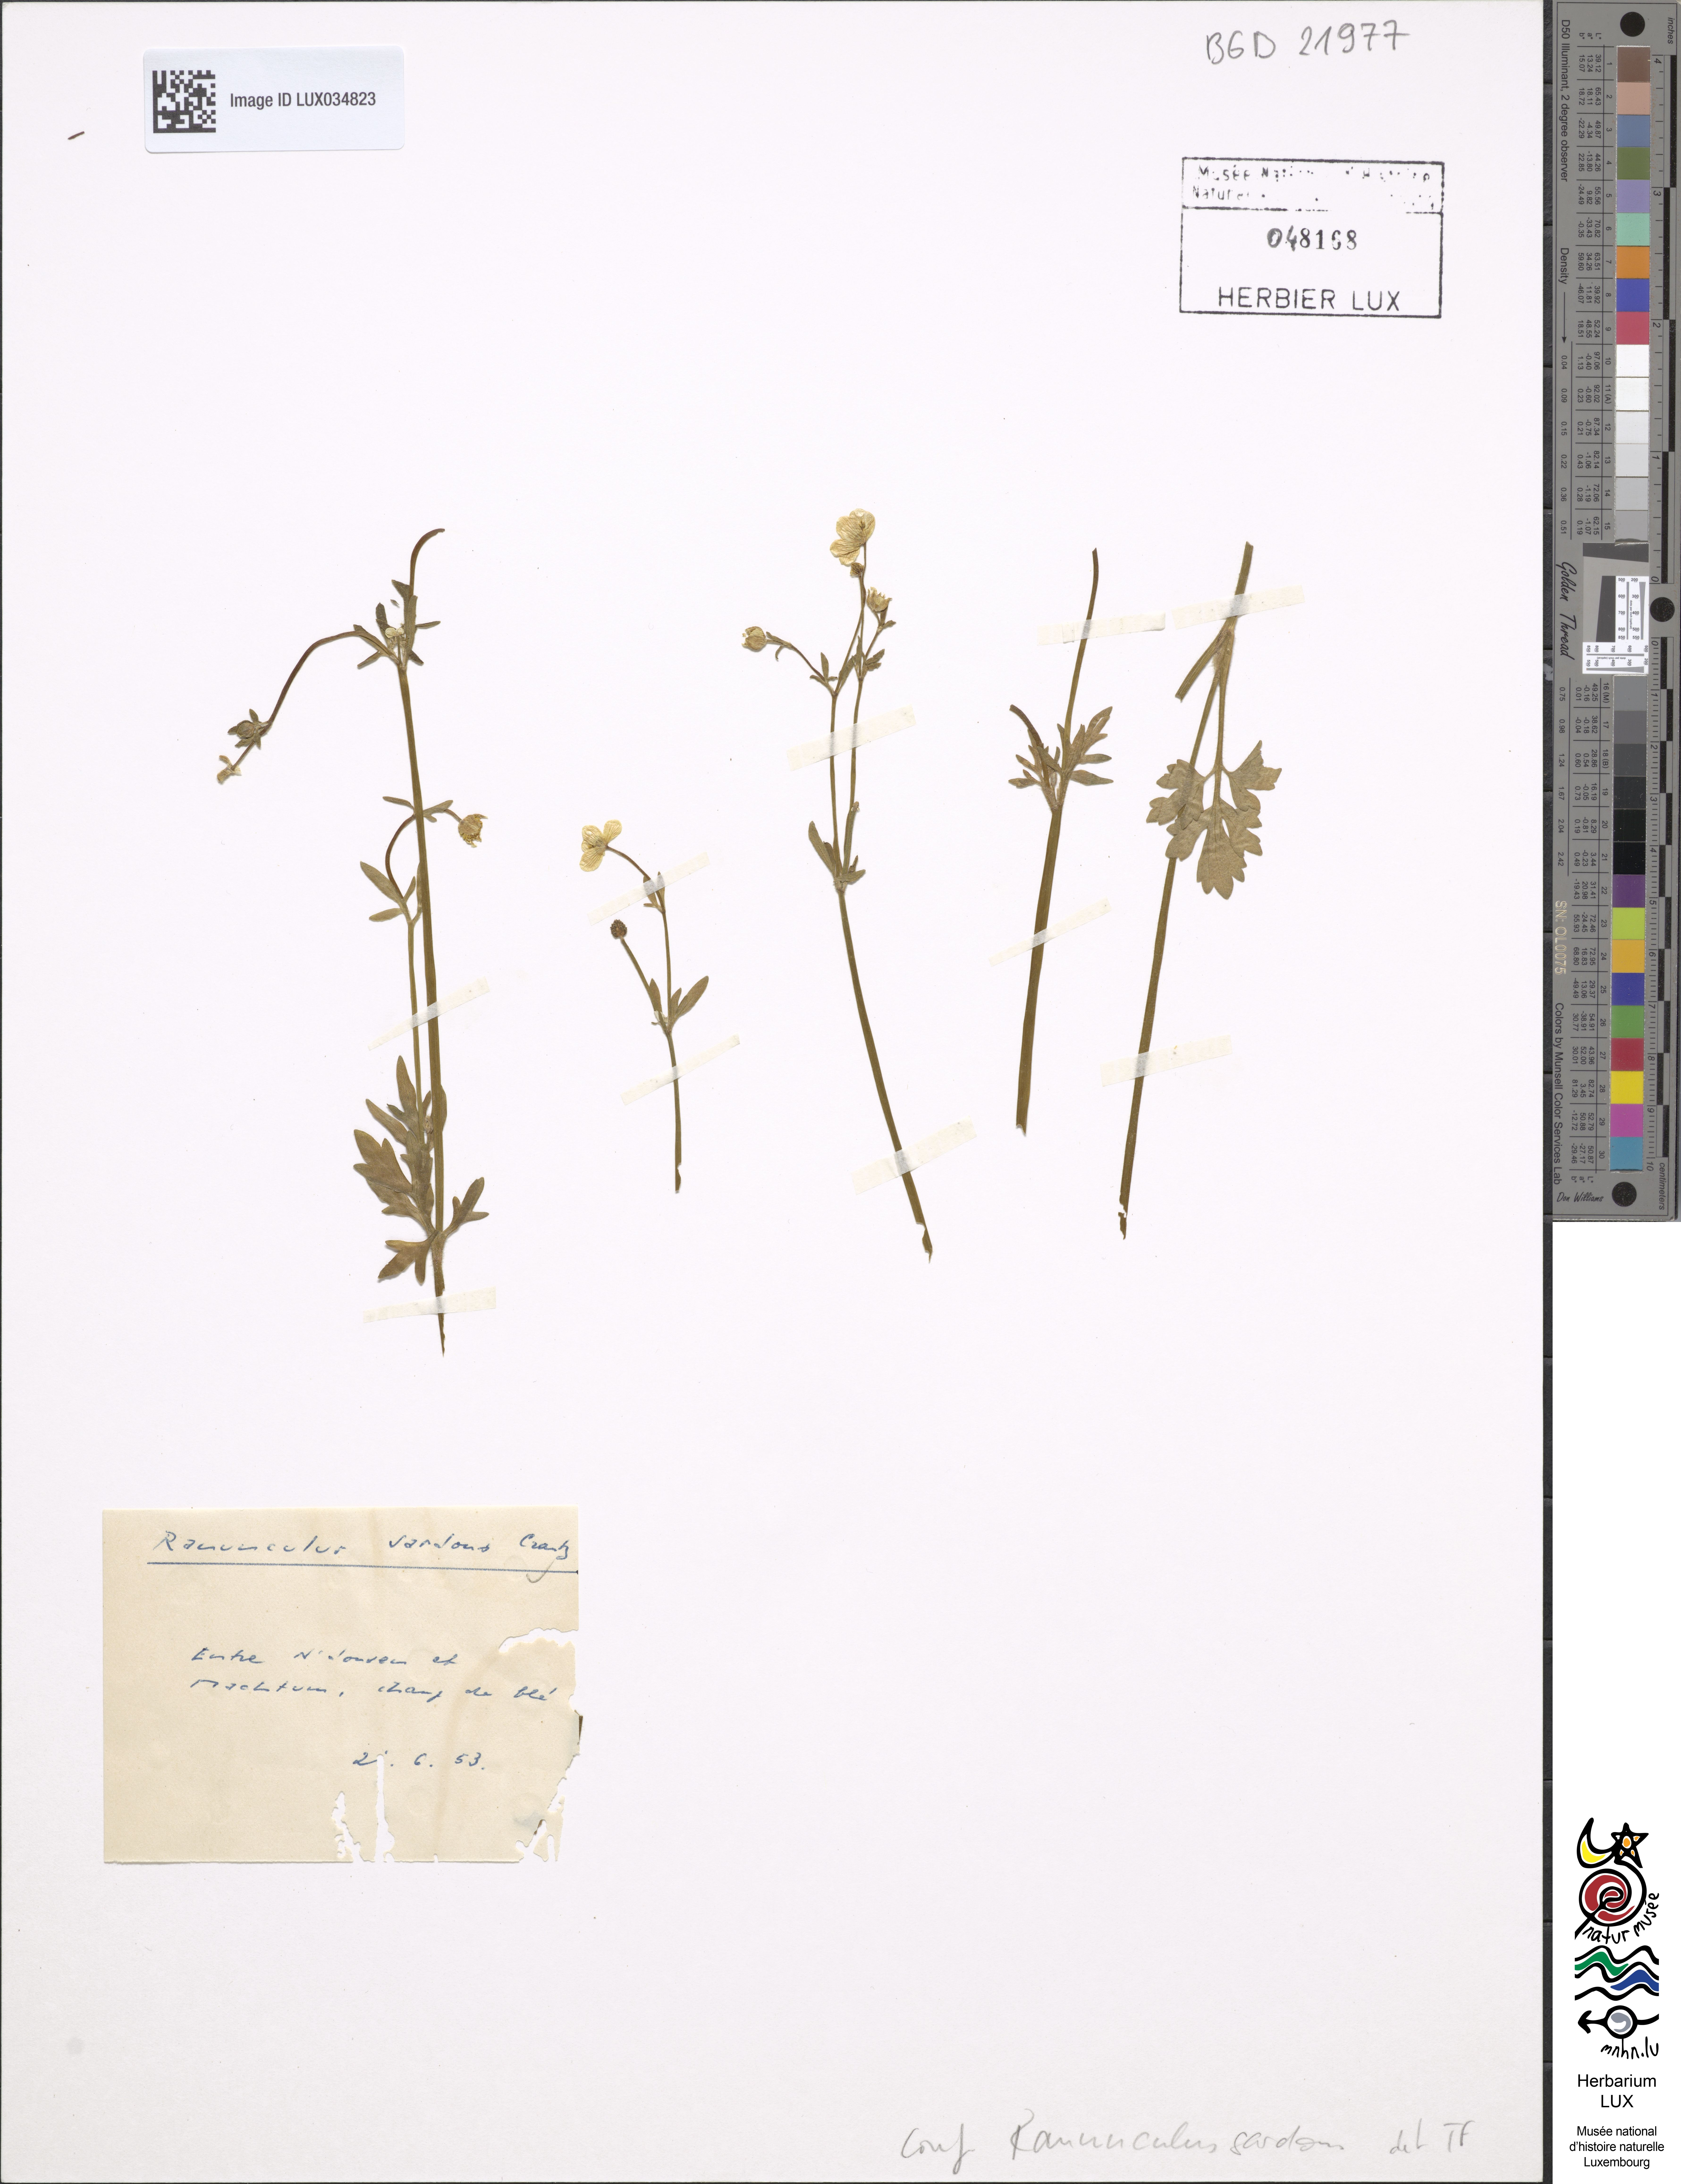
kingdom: Plantae
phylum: Tracheophyta
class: Magnoliopsida
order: Ranunculales
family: Ranunculaceae
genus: Ranunculus
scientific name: Ranunculus sardous
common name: Hairy buttercup
